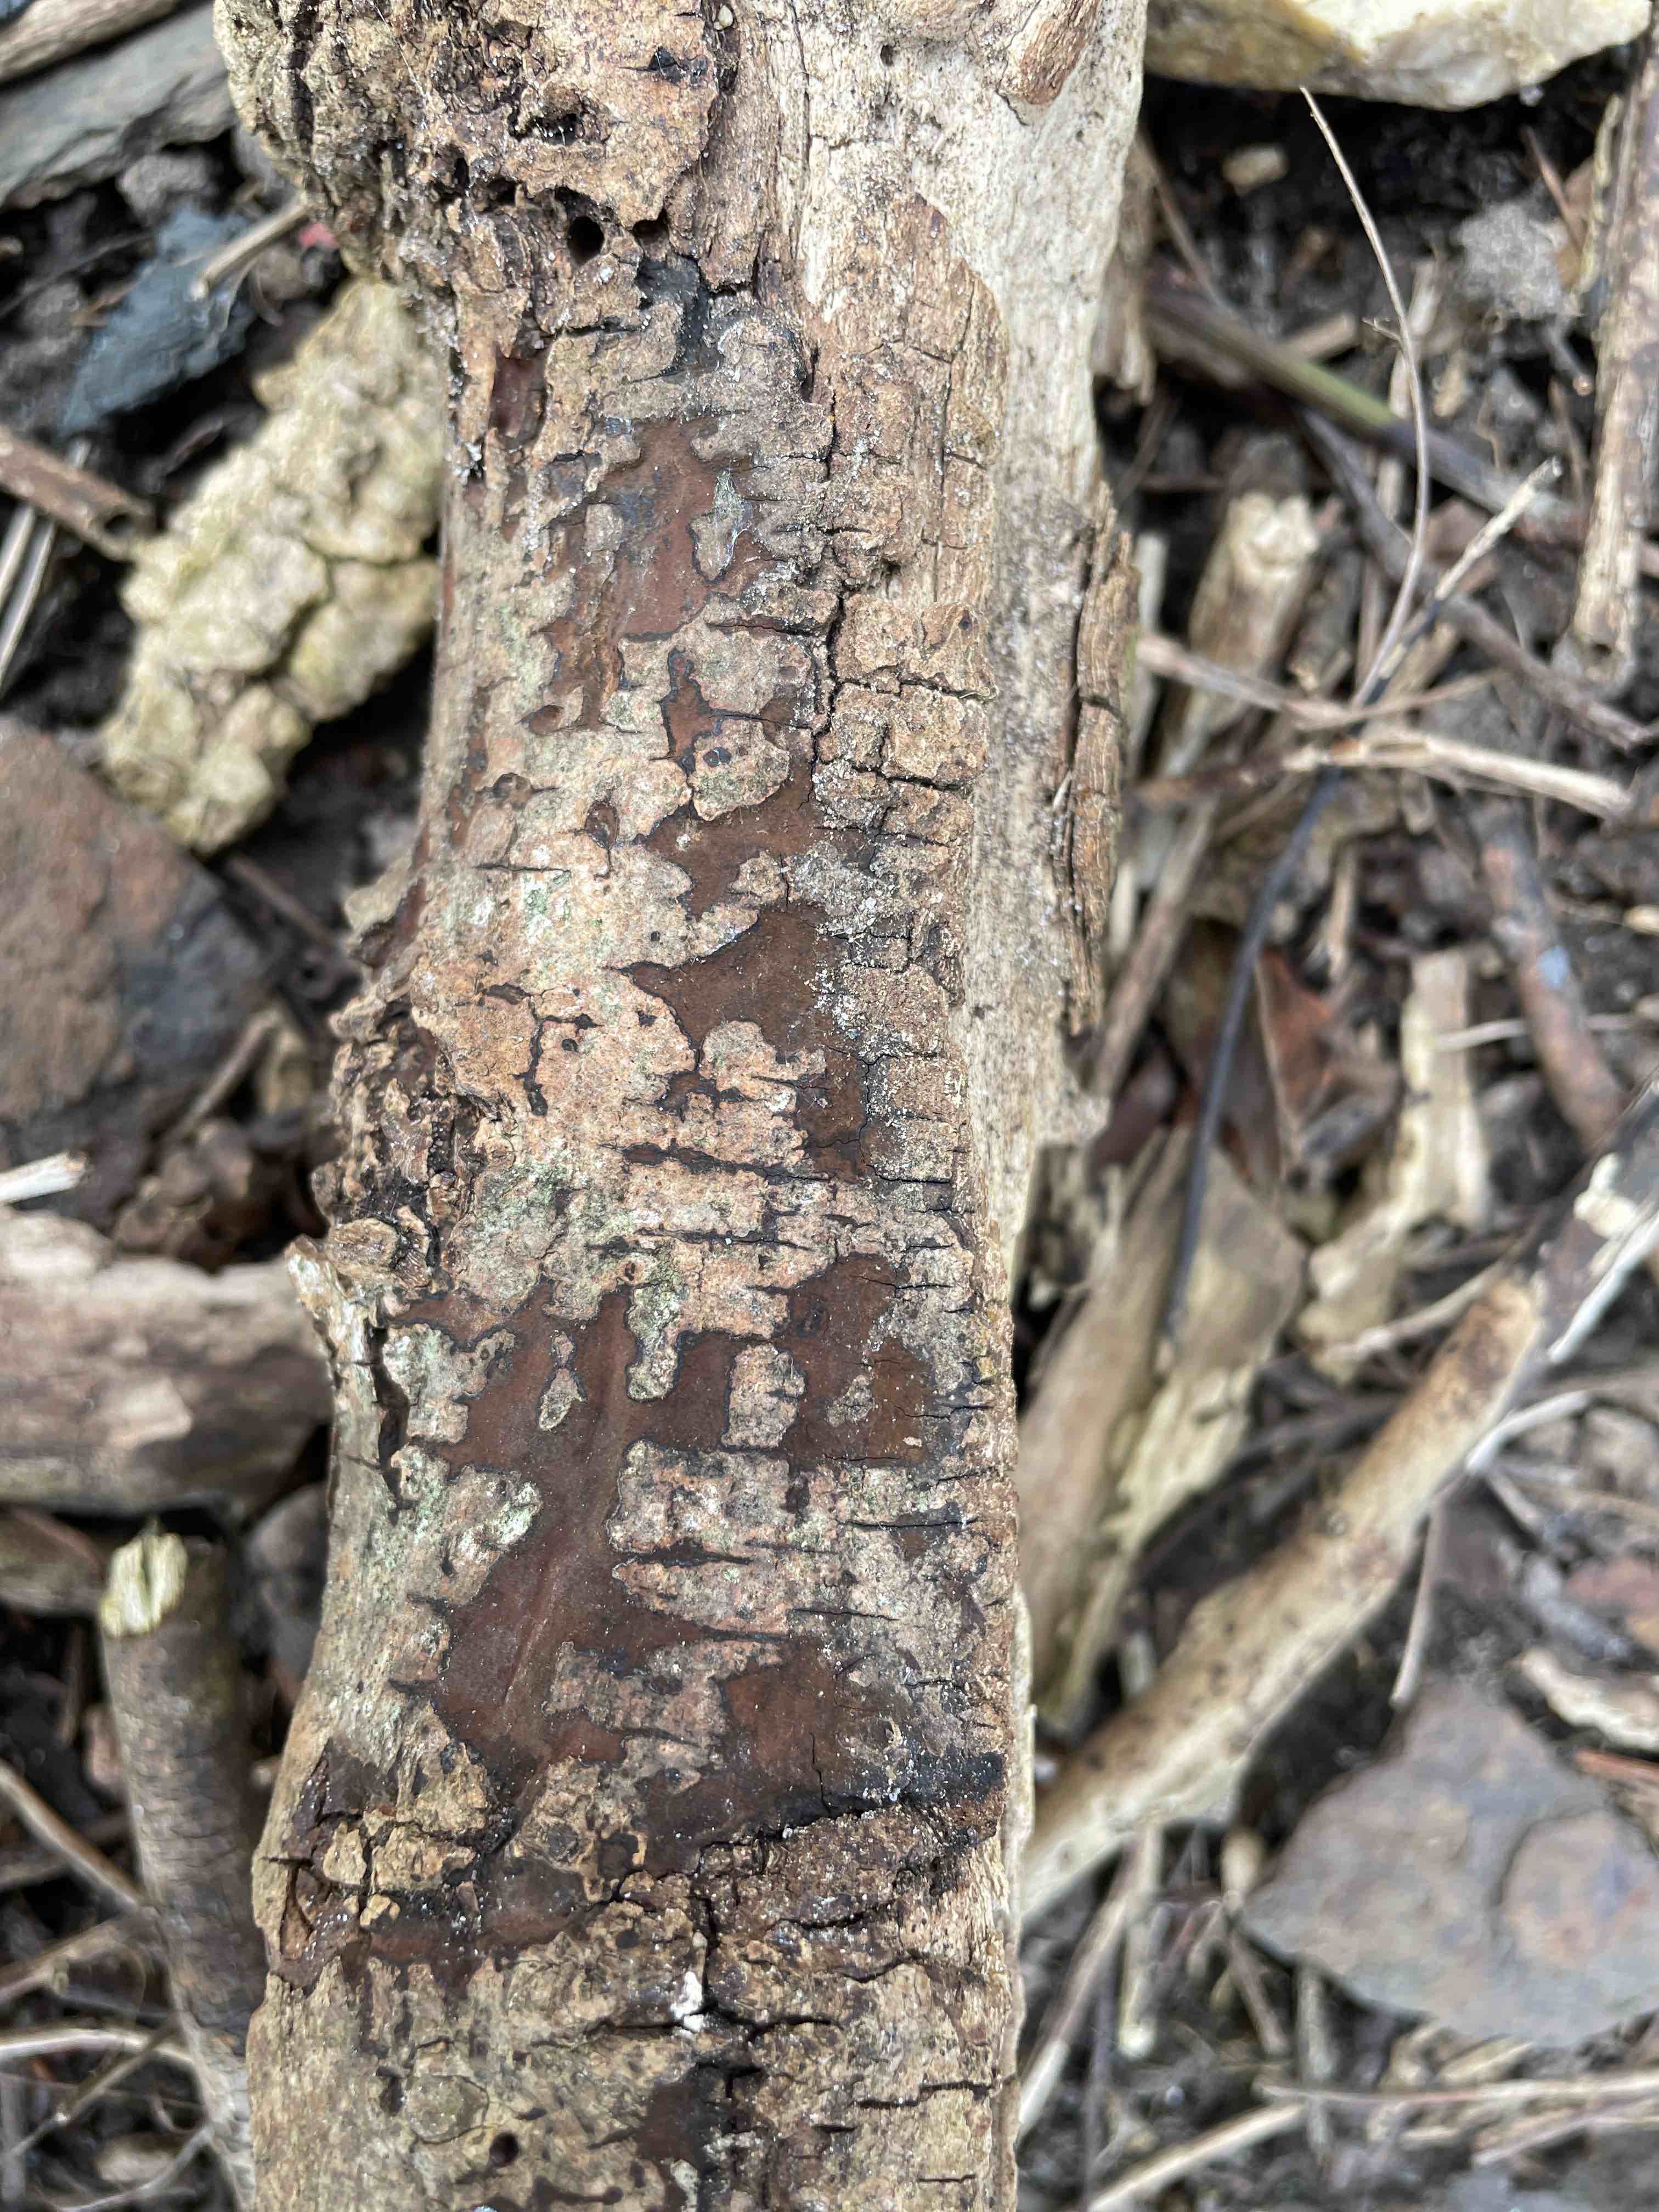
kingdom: Fungi
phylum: Ascomycota
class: Sordariomycetes
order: Xylariales
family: Hypoxylaceae
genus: Hypoxylon
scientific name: Hypoxylon petriniae
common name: nedsænket kulbær
